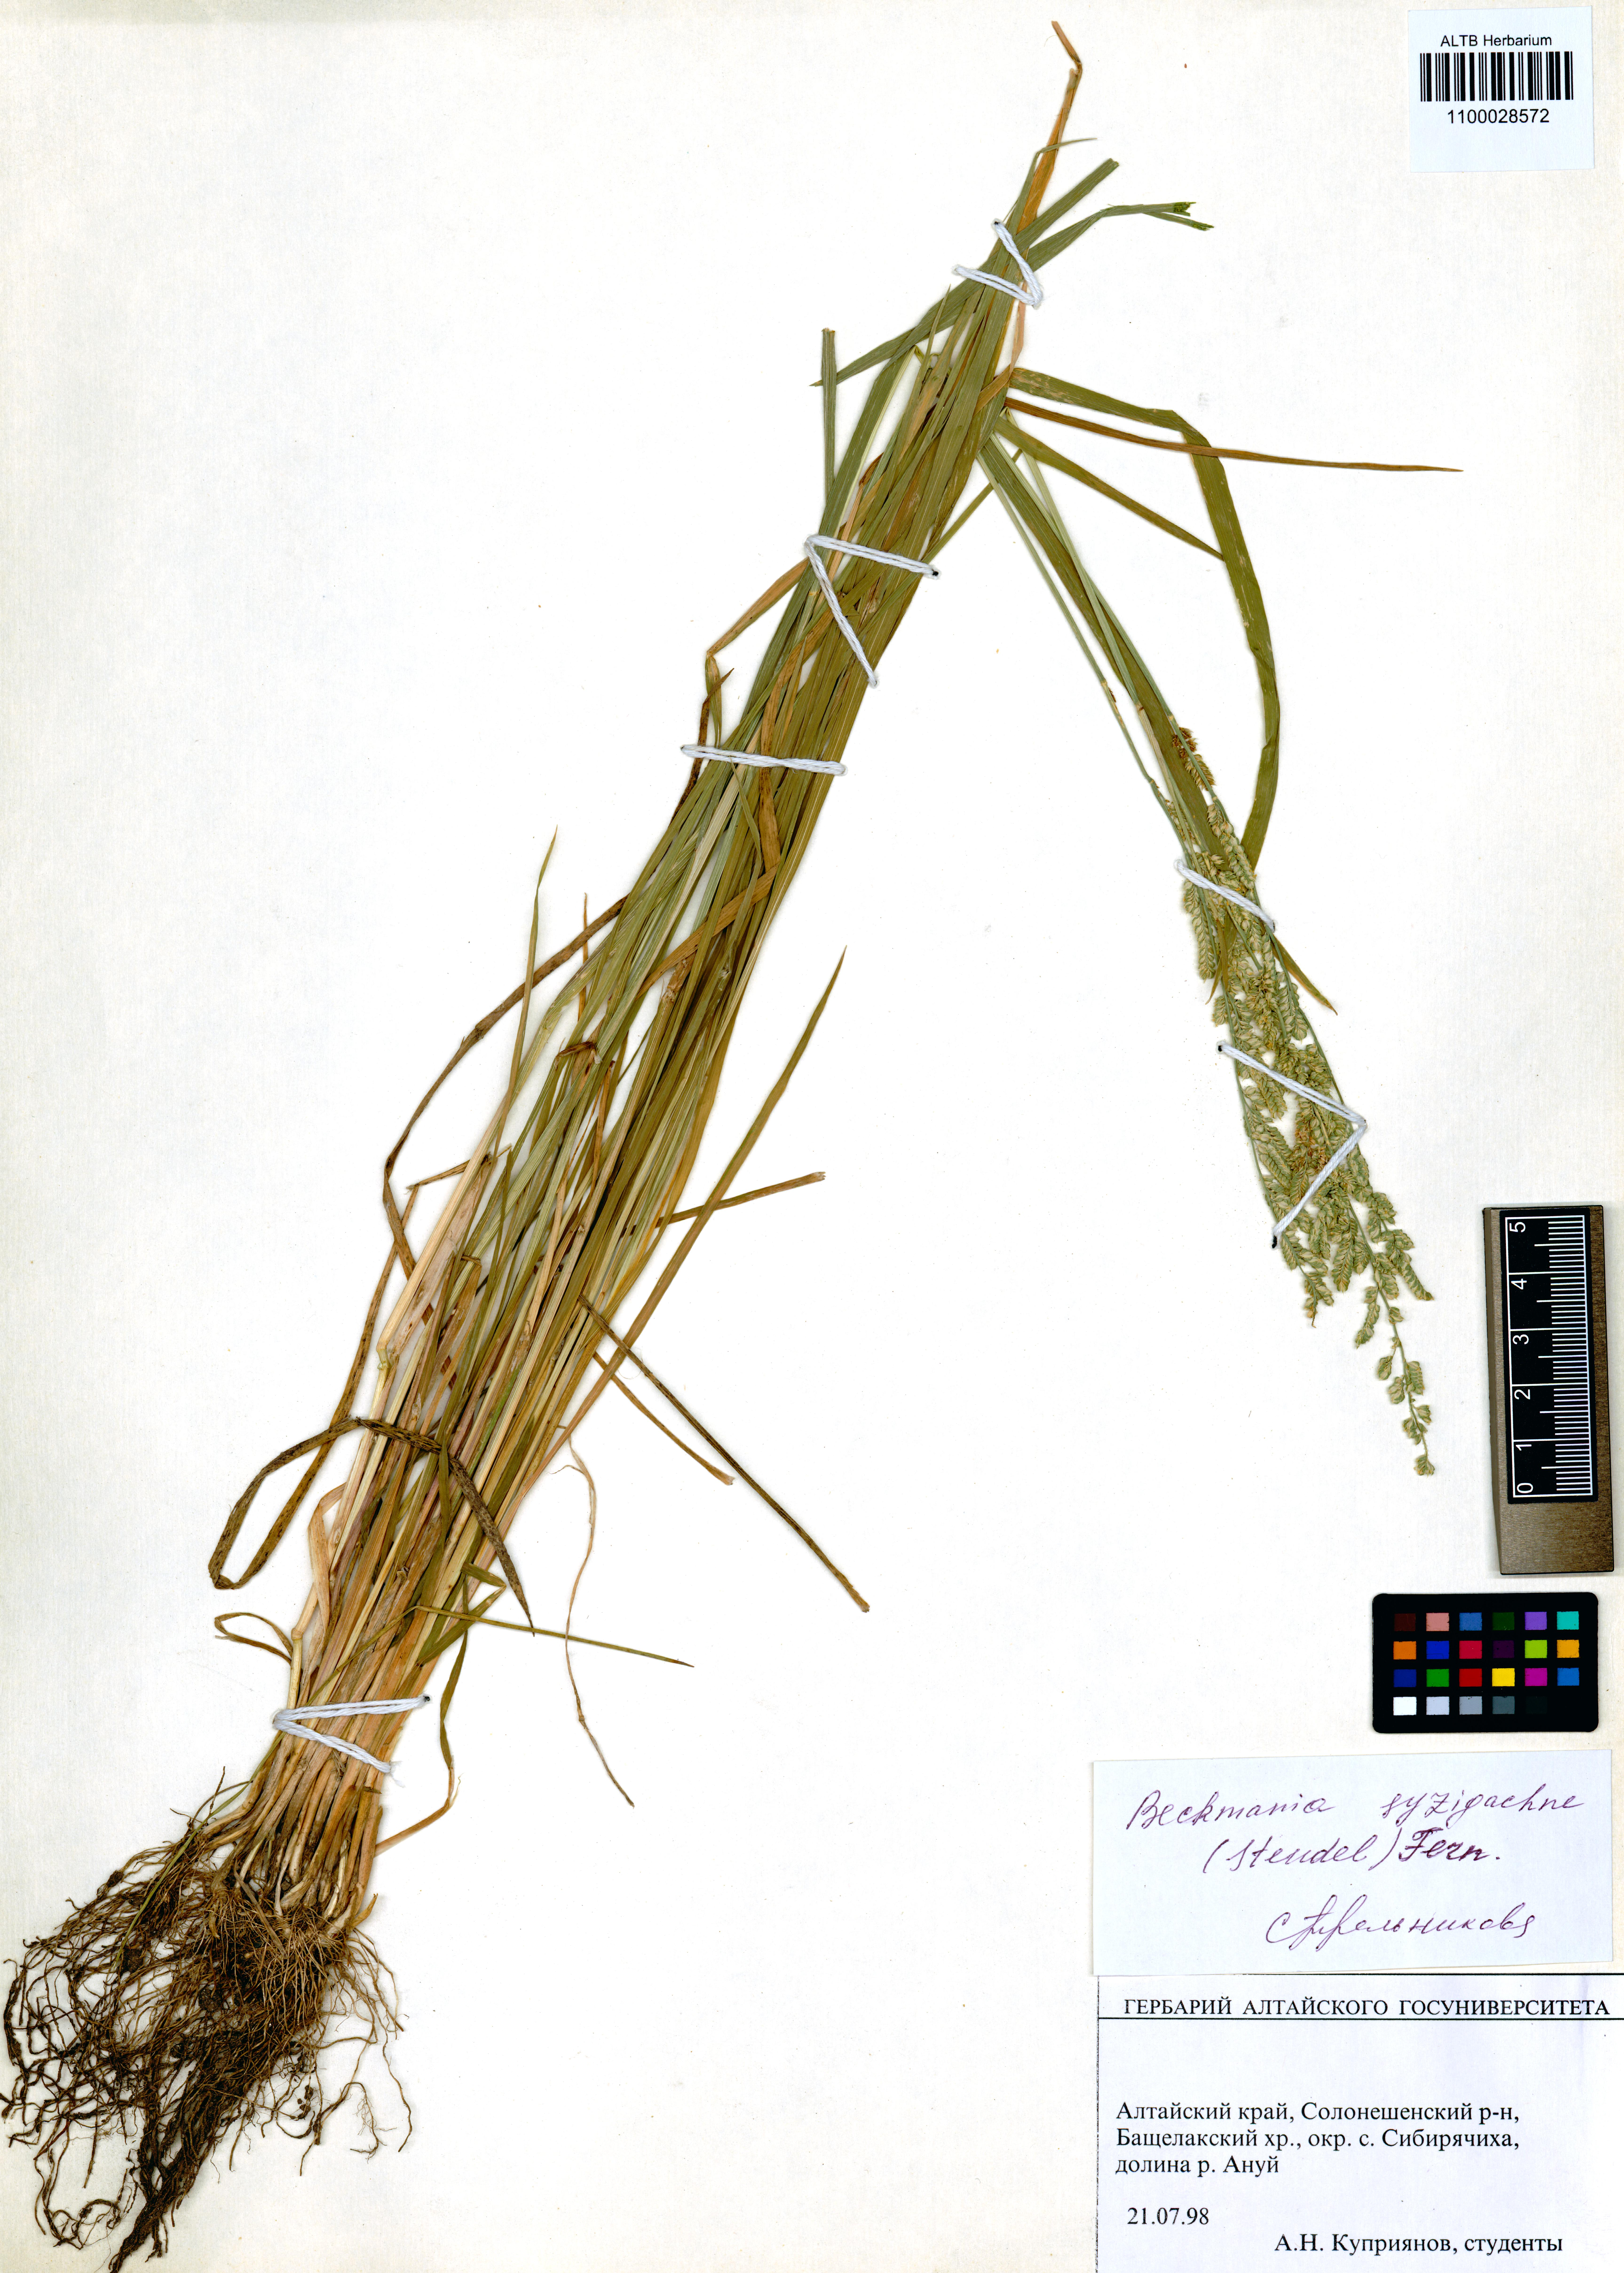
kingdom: Plantae
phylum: Tracheophyta
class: Liliopsida
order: Poales
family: Poaceae
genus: Beckmannia
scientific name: Beckmannia syzigachne
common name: American slough-grass
